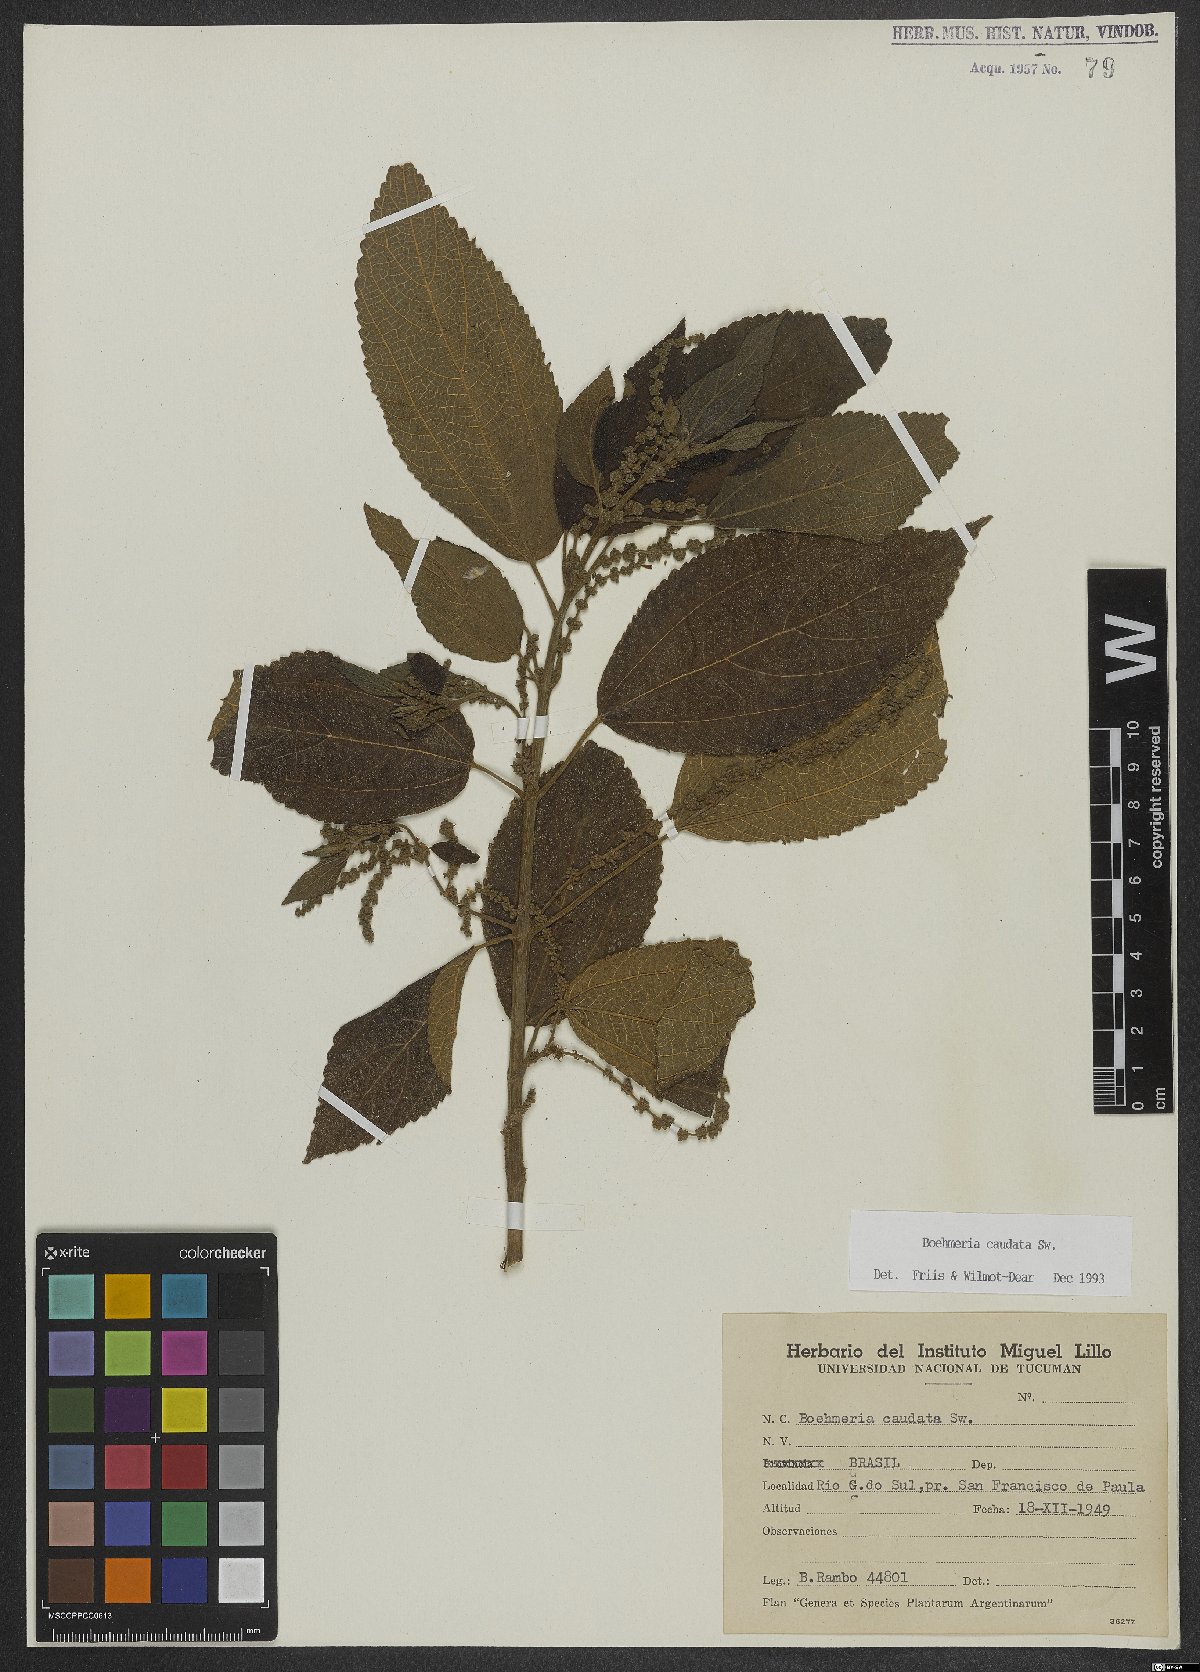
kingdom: Plantae
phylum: Tracheophyta
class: Magnoliopsida
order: Rosales
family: Urticaceae
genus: Boehmeria
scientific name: Boehmeria caudata
